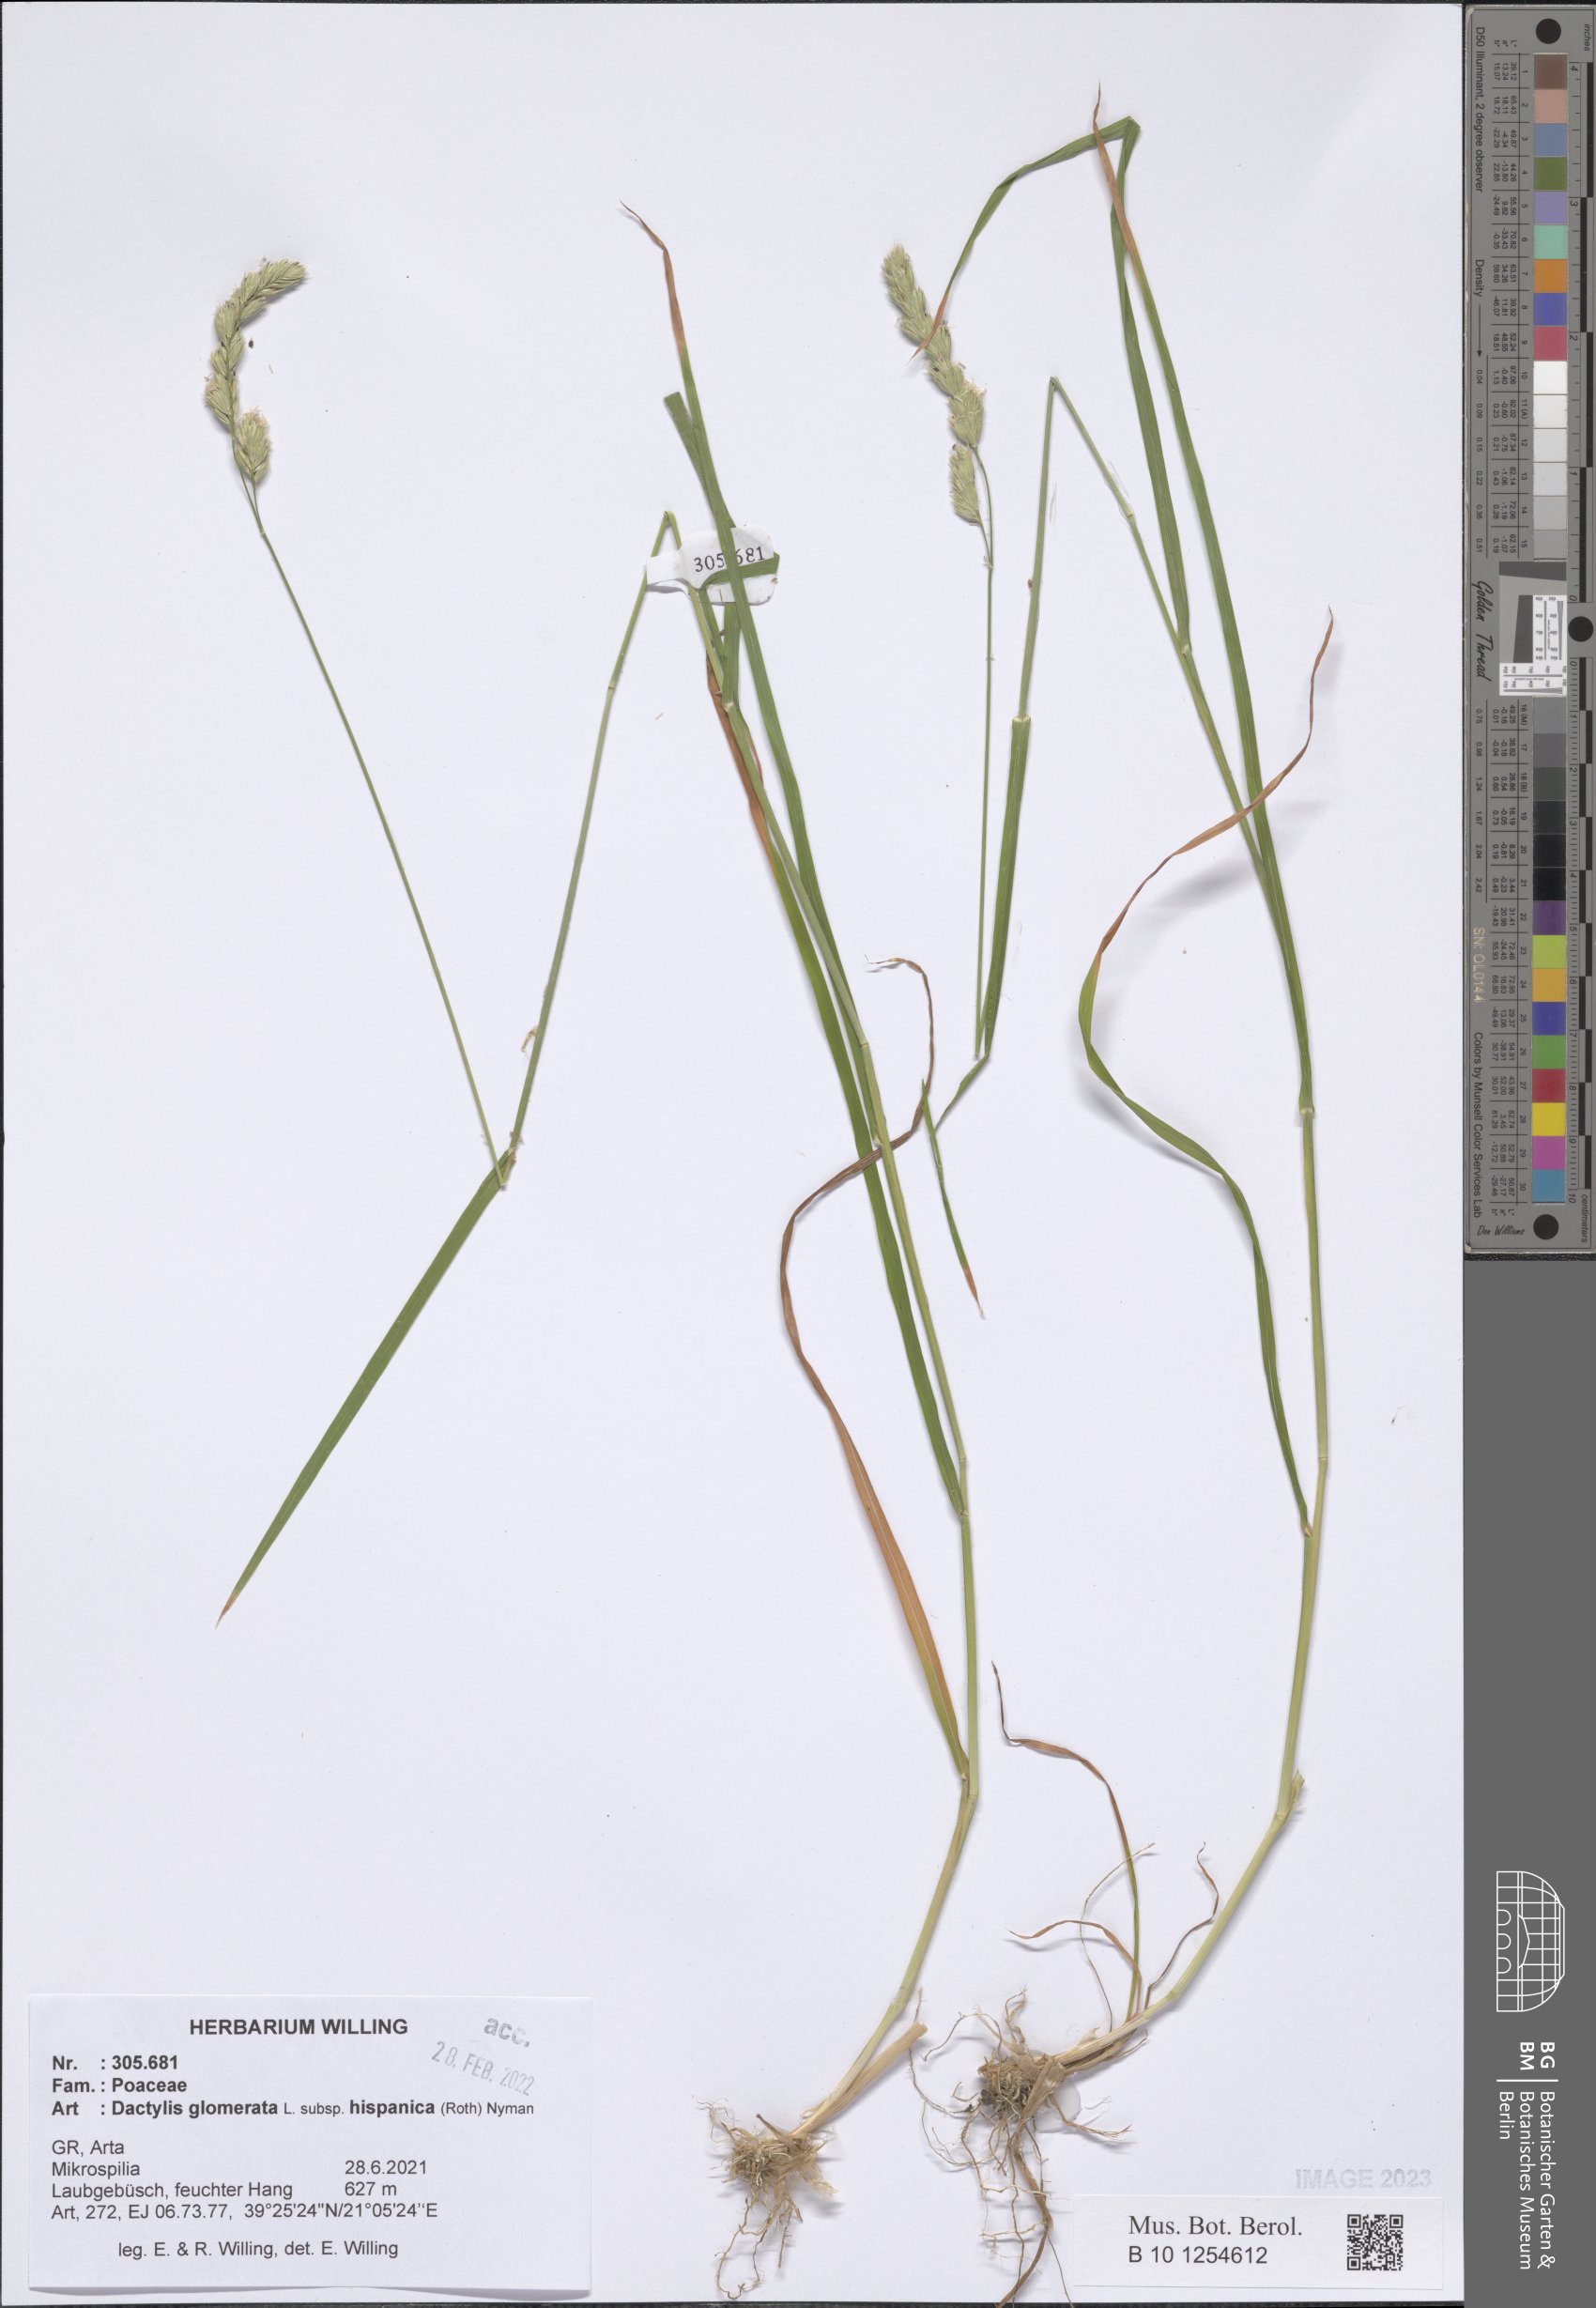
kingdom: Plantae
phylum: Tracheophyta
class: Liliopsida
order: Poales
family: Poaceae
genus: Dactylis
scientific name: Dactylis glomerata
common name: Orchardgrass
